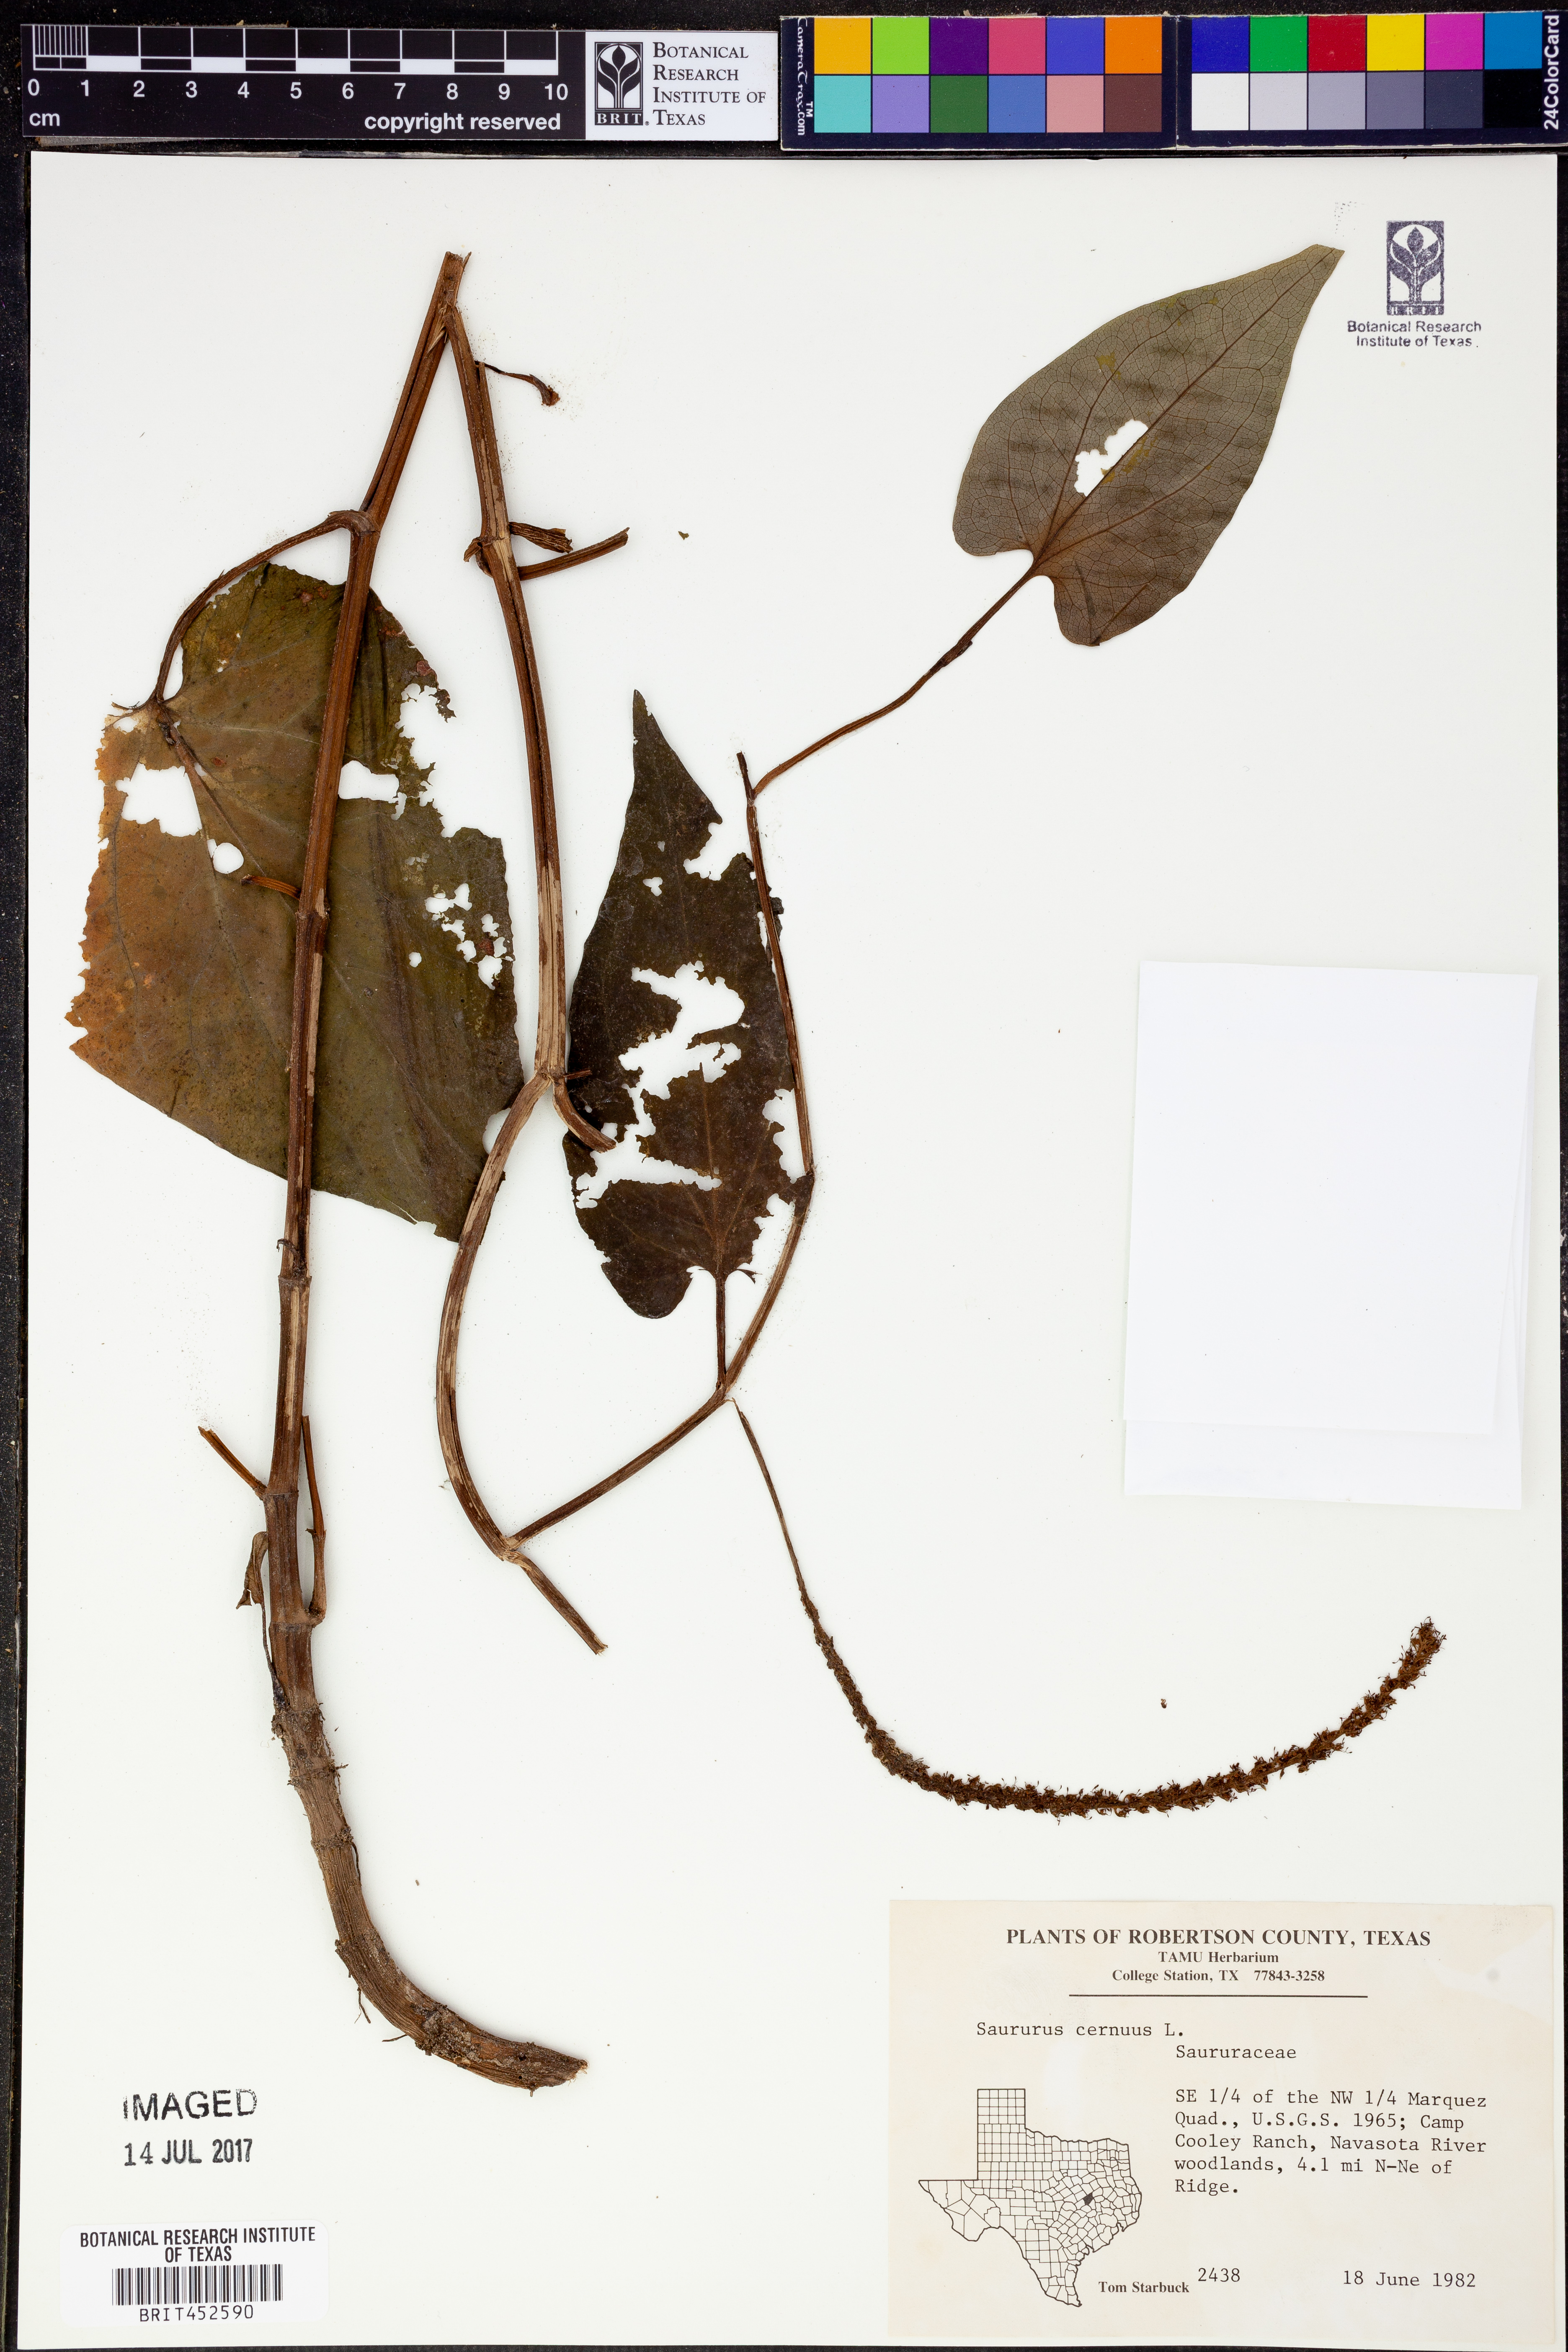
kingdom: Plantae
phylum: Tracheophyta
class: Magnoliopsida
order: Piperales
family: Saururaceae
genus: Saururus
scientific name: Saururus cernuus
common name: Lizard's-tail
